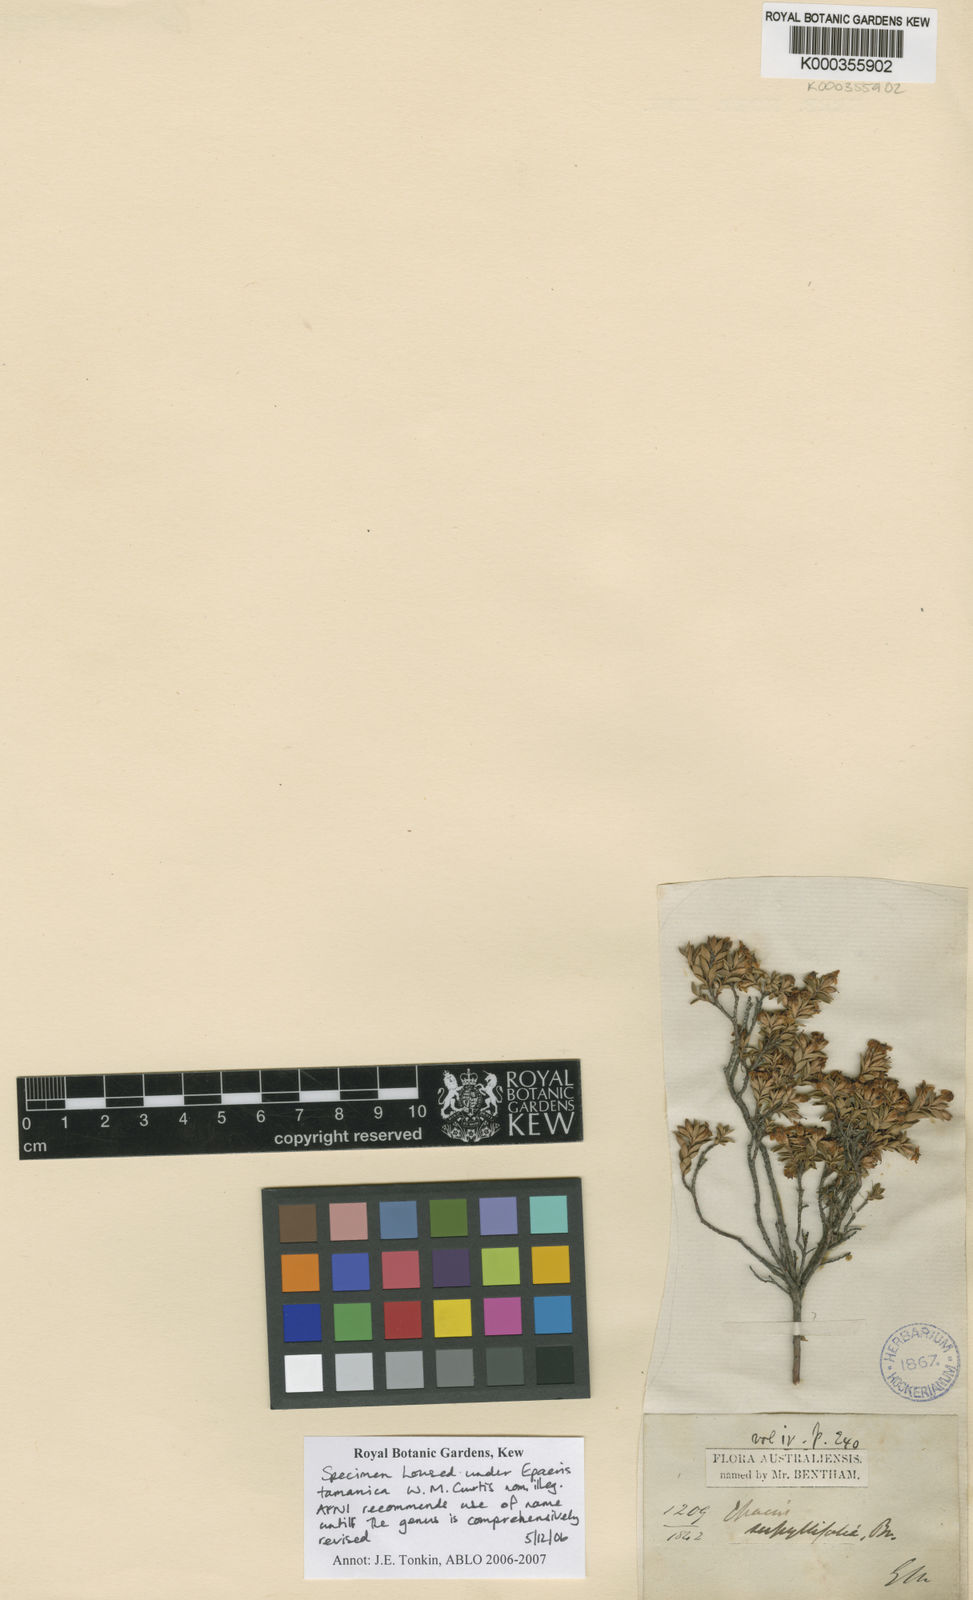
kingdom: Plantae
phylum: Tracheophyta
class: Magnoliopsida
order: Ericales
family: Ericaceae
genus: Epacris
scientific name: Epacris tasmanica
